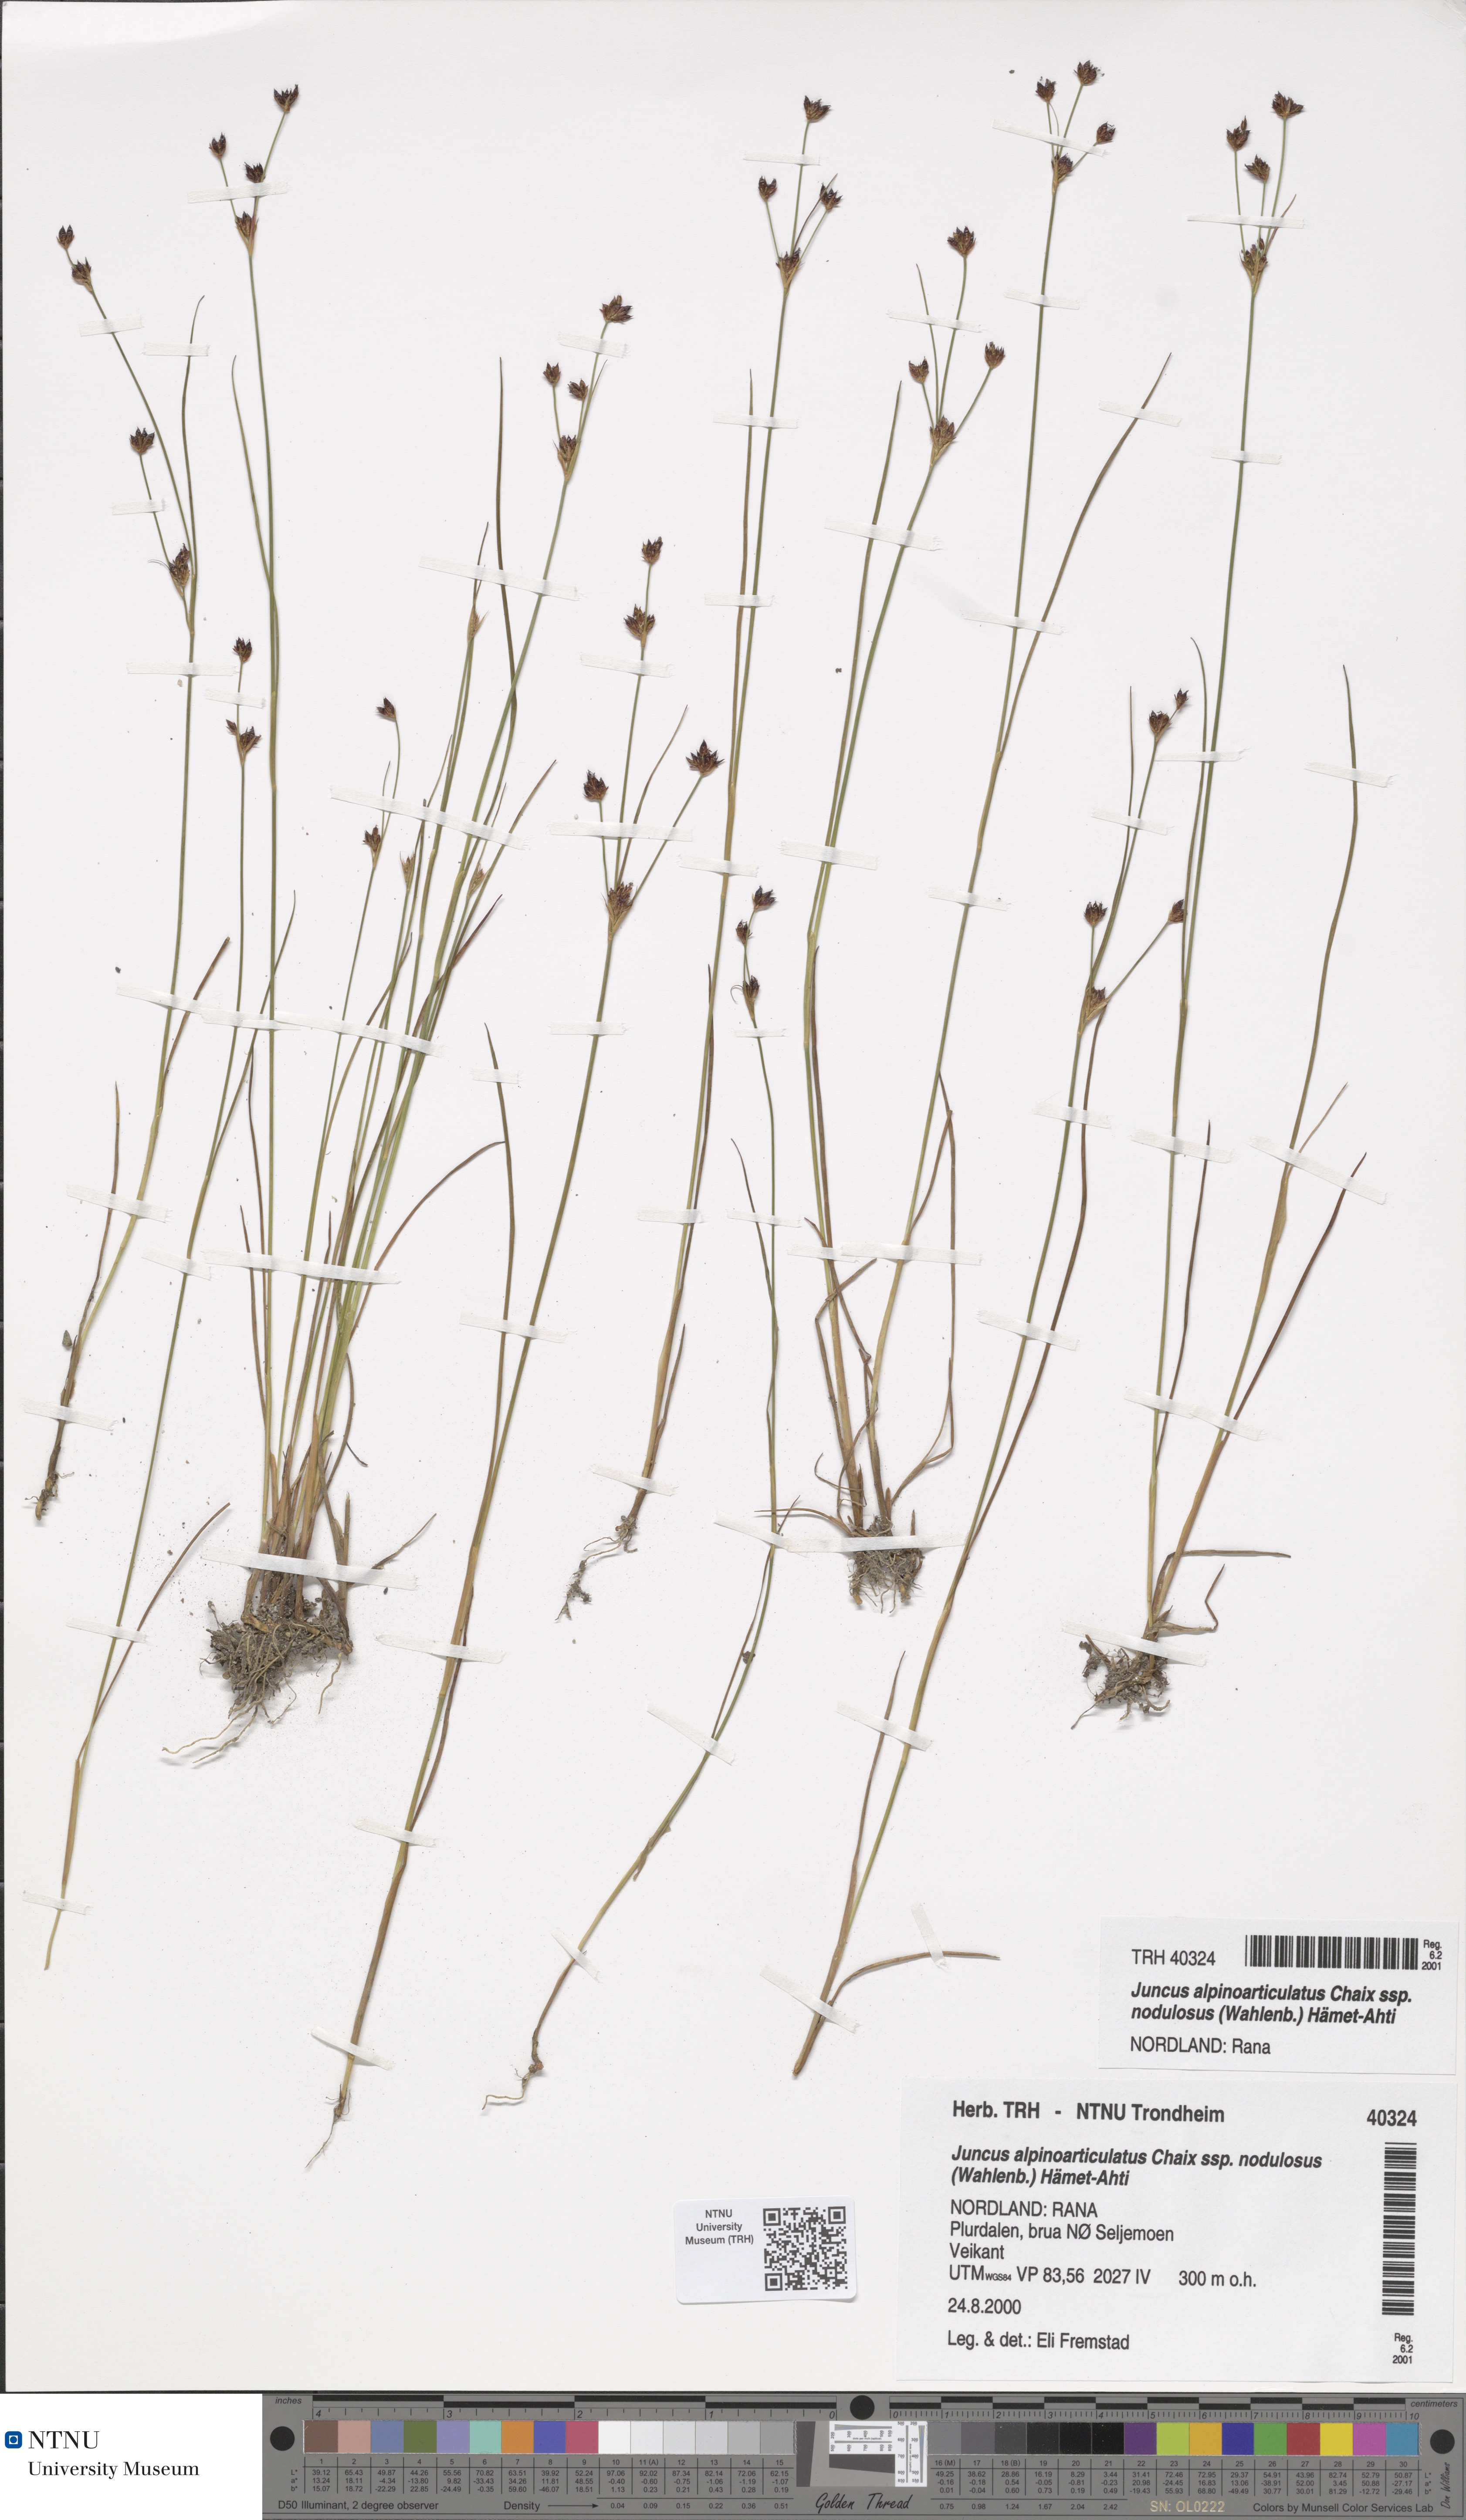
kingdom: Plantae
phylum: Tracheophyta
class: Liliopsida
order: Poales
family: Juncaceae
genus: Juncus
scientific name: Juncus alpinoarticulatus
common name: Alpine rush
